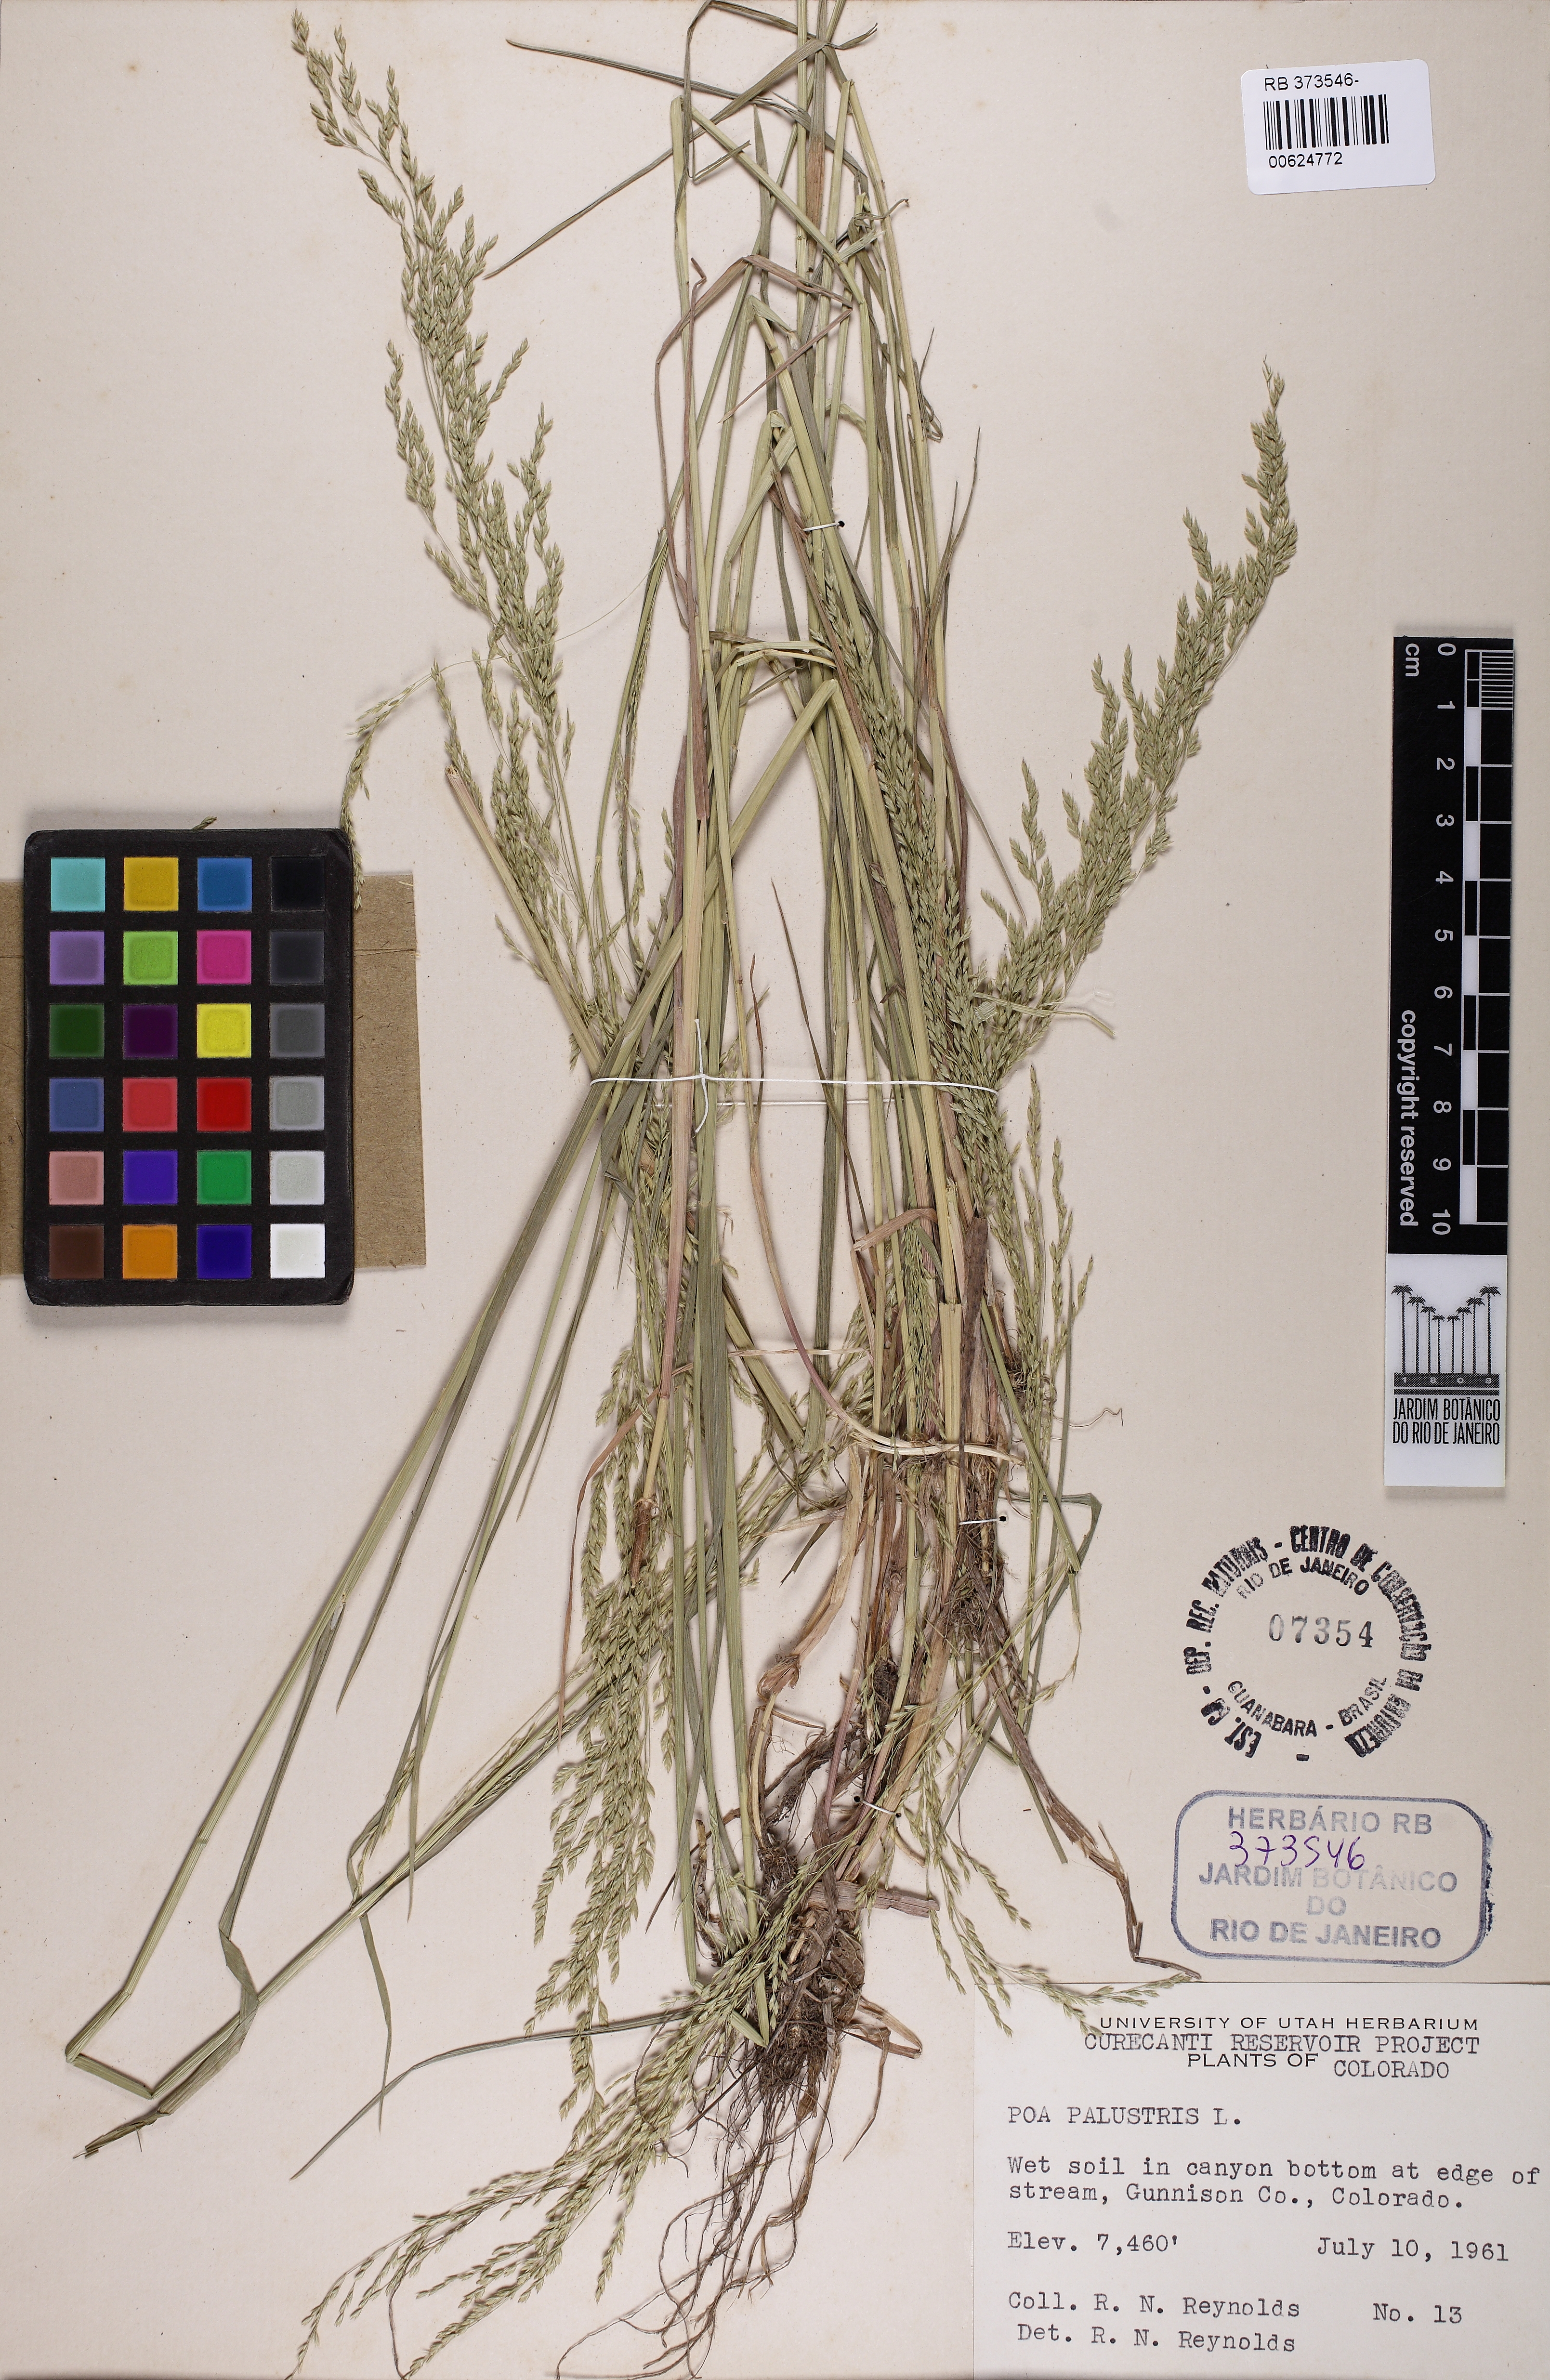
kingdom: Plantae
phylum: Tracheophyta
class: Liliopsida
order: Poales
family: Poaceae
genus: Poa
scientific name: Poa palustris
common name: Swamp meadow-grass
